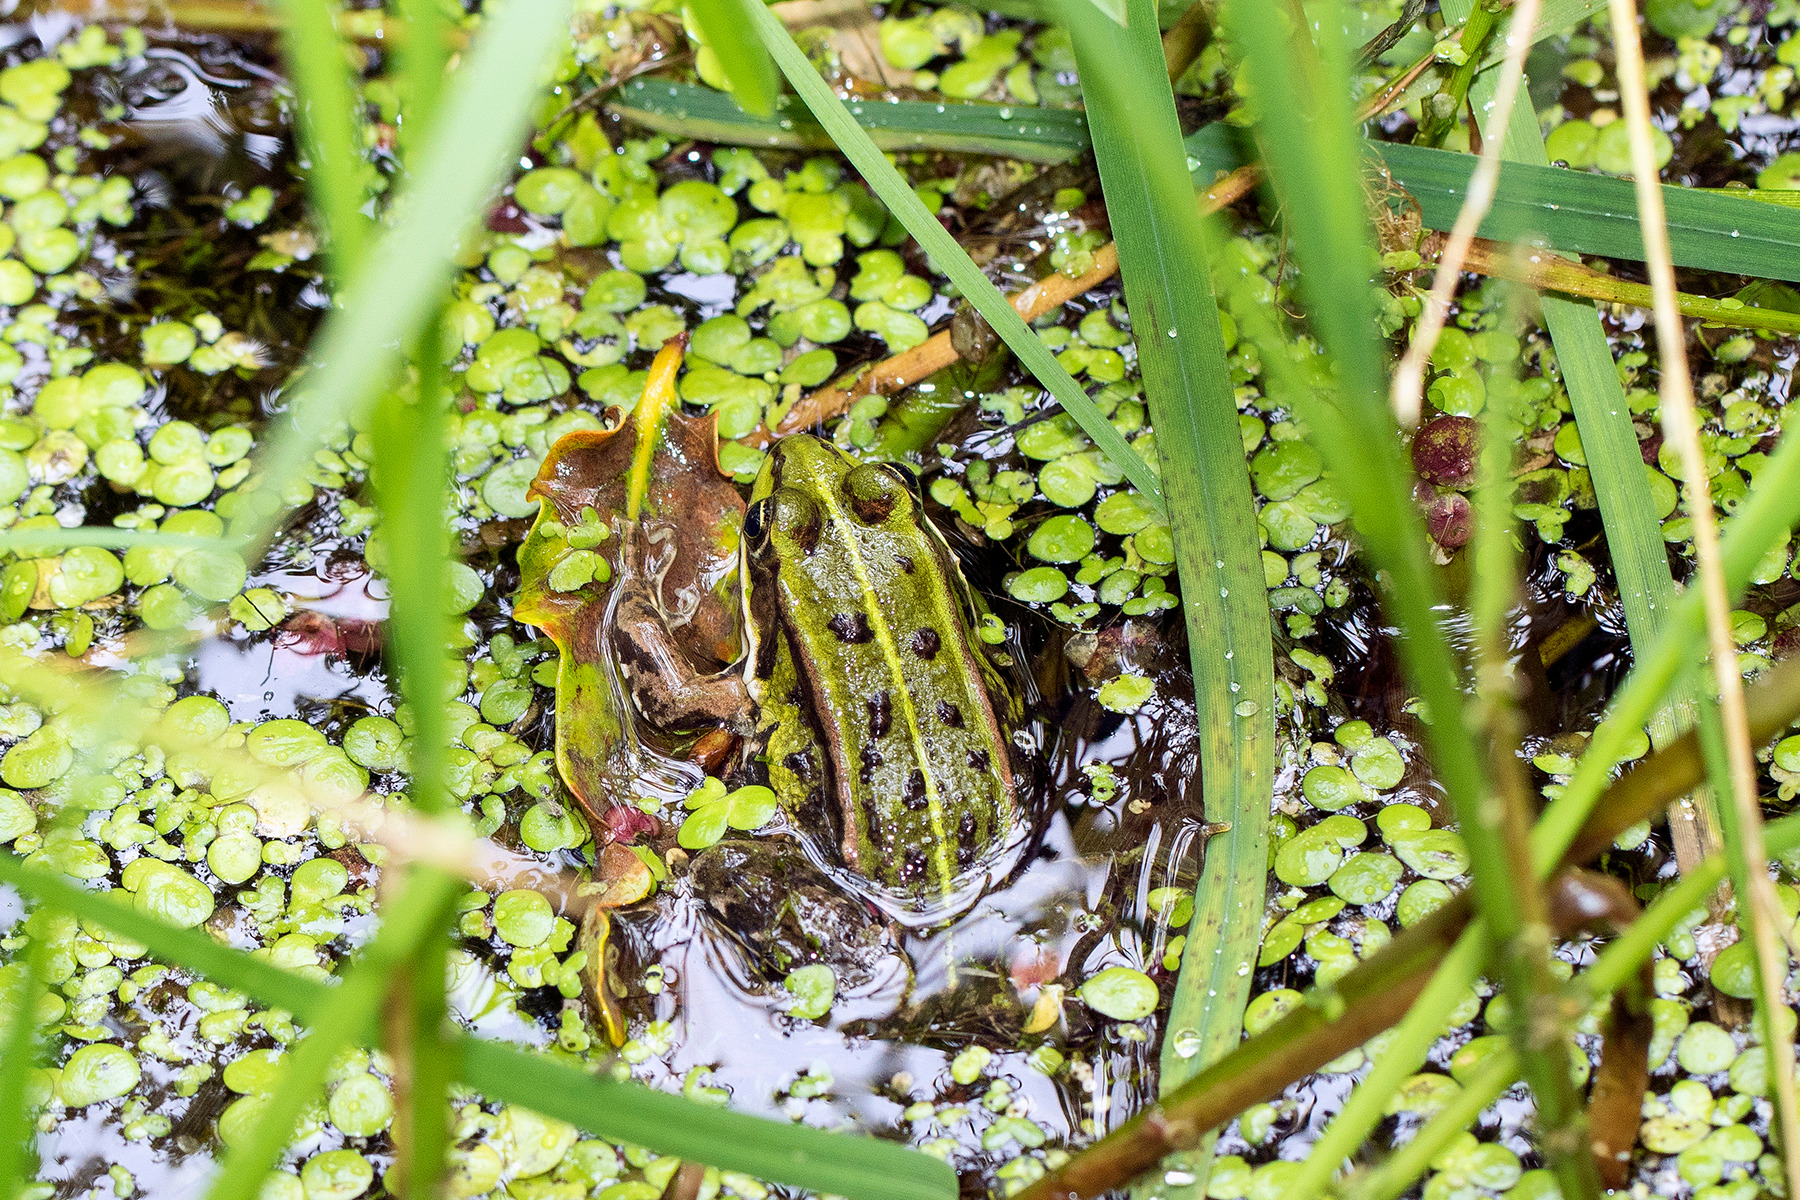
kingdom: Animalia
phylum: Chordata
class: Amphibia
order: Anura
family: Ranidae
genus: Pelophylax
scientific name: Pelophylax lessonae
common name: Grøn frø
